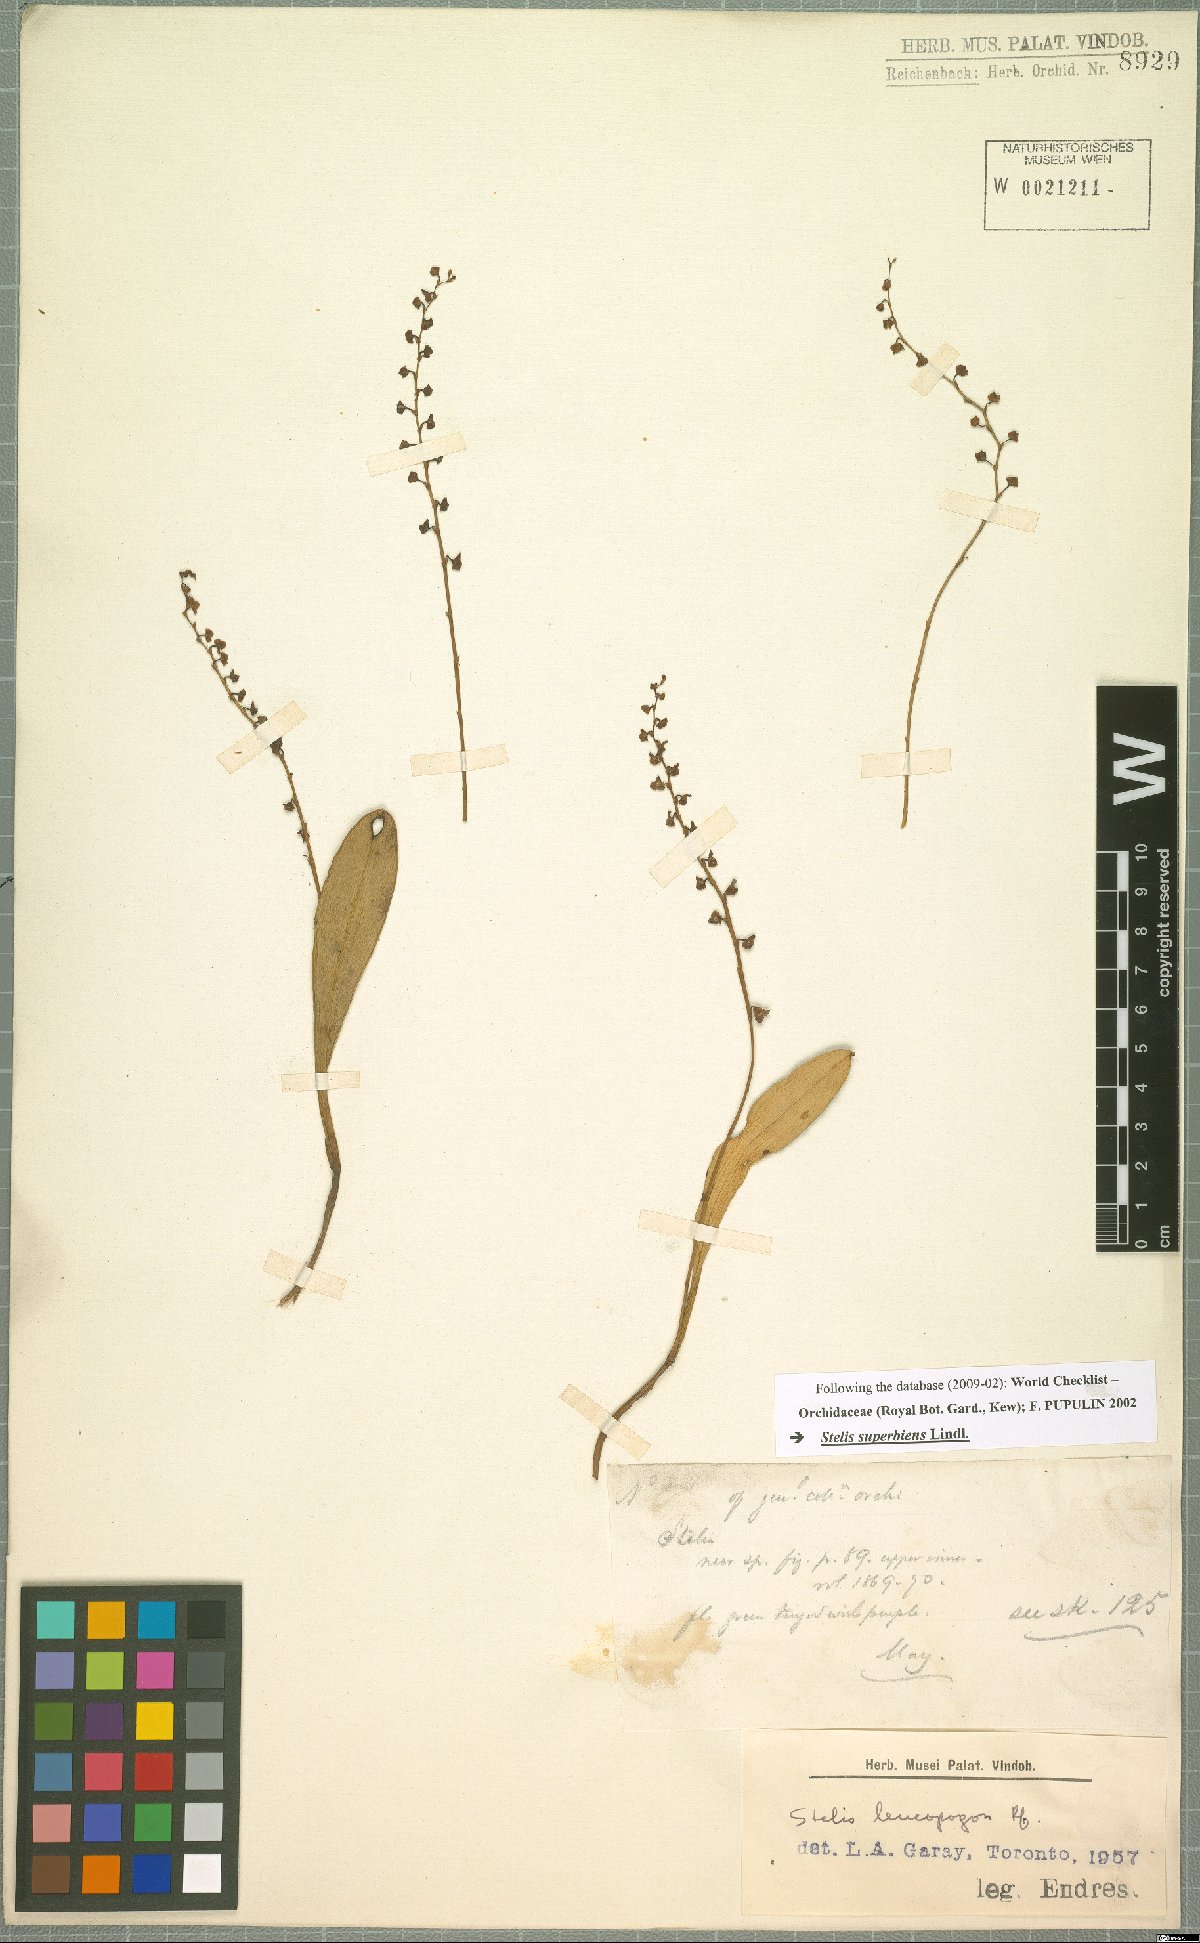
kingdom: Plantae
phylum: Tracheophyta
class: Liliopsida
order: Asparagales
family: Orchidaceae
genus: Stelis
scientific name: Stelis superbiens
